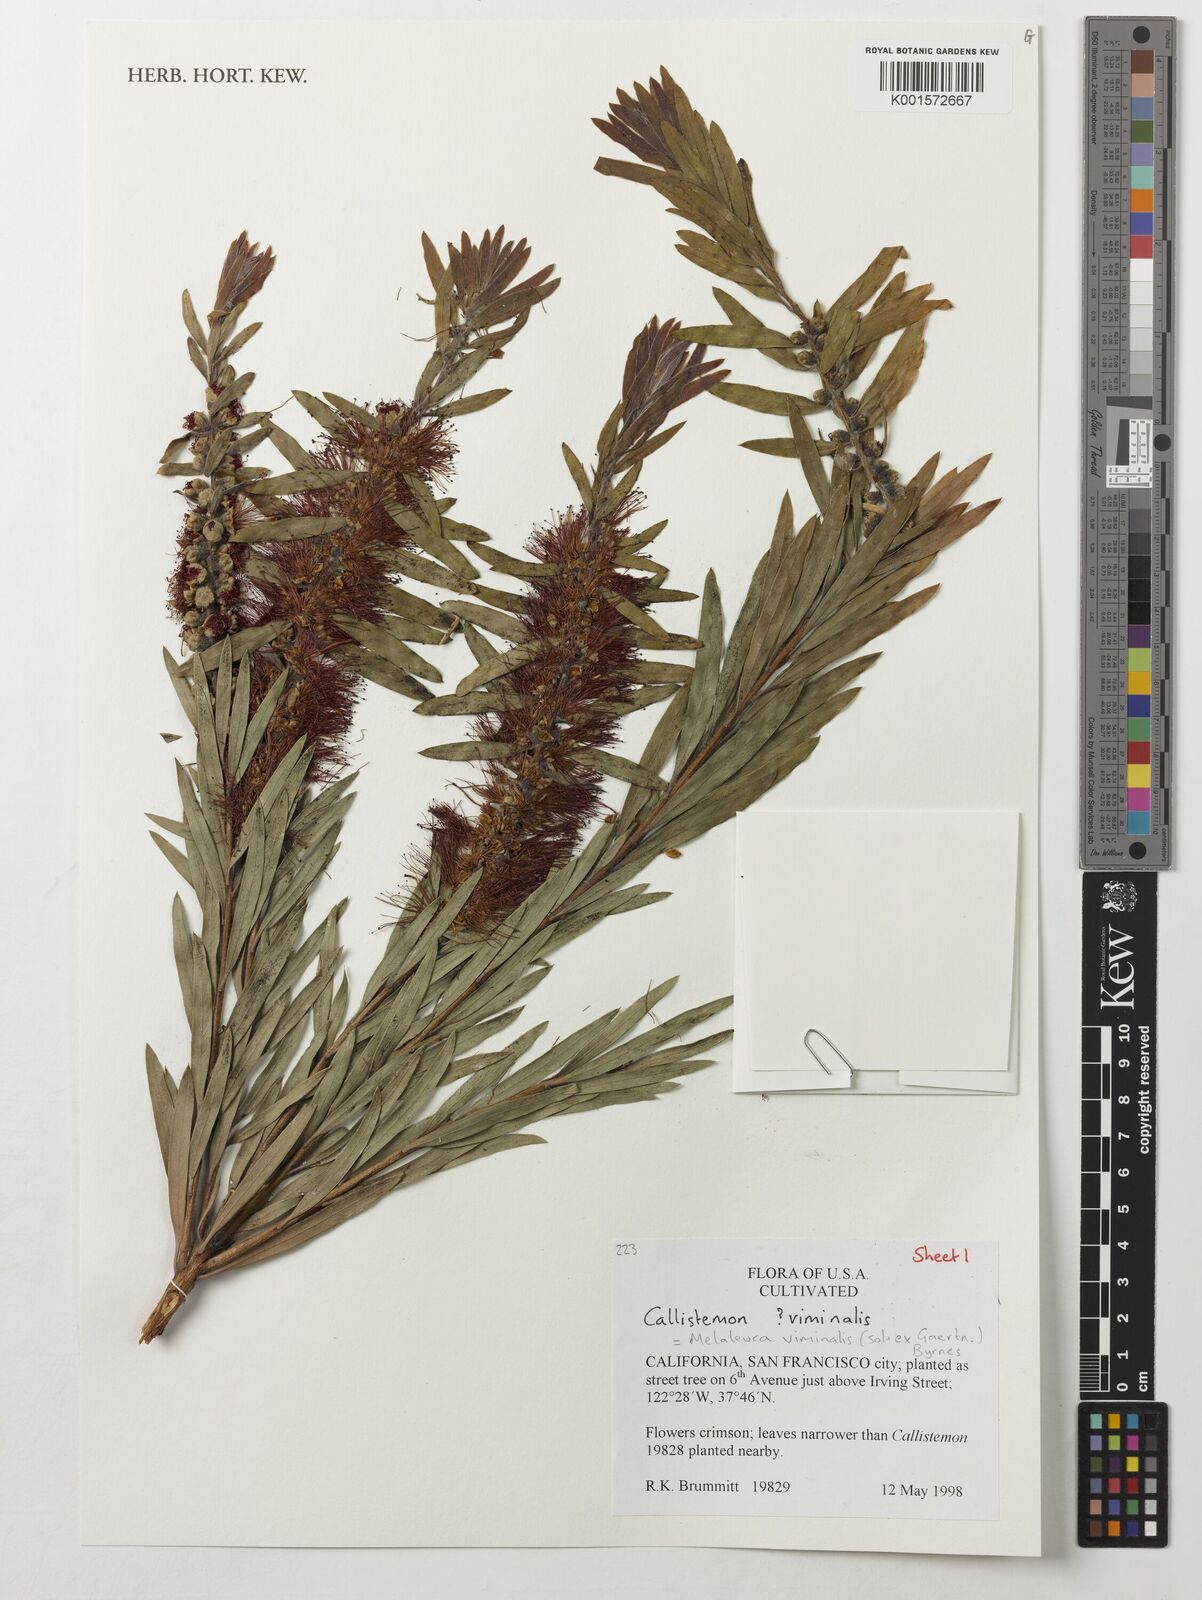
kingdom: Plantae
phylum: Tracheophyta
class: Magnoliopsida
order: Myrtales
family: Myrtaceae
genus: Callistemon
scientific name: Callistemon viminalis
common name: Drooping bottlebrush
